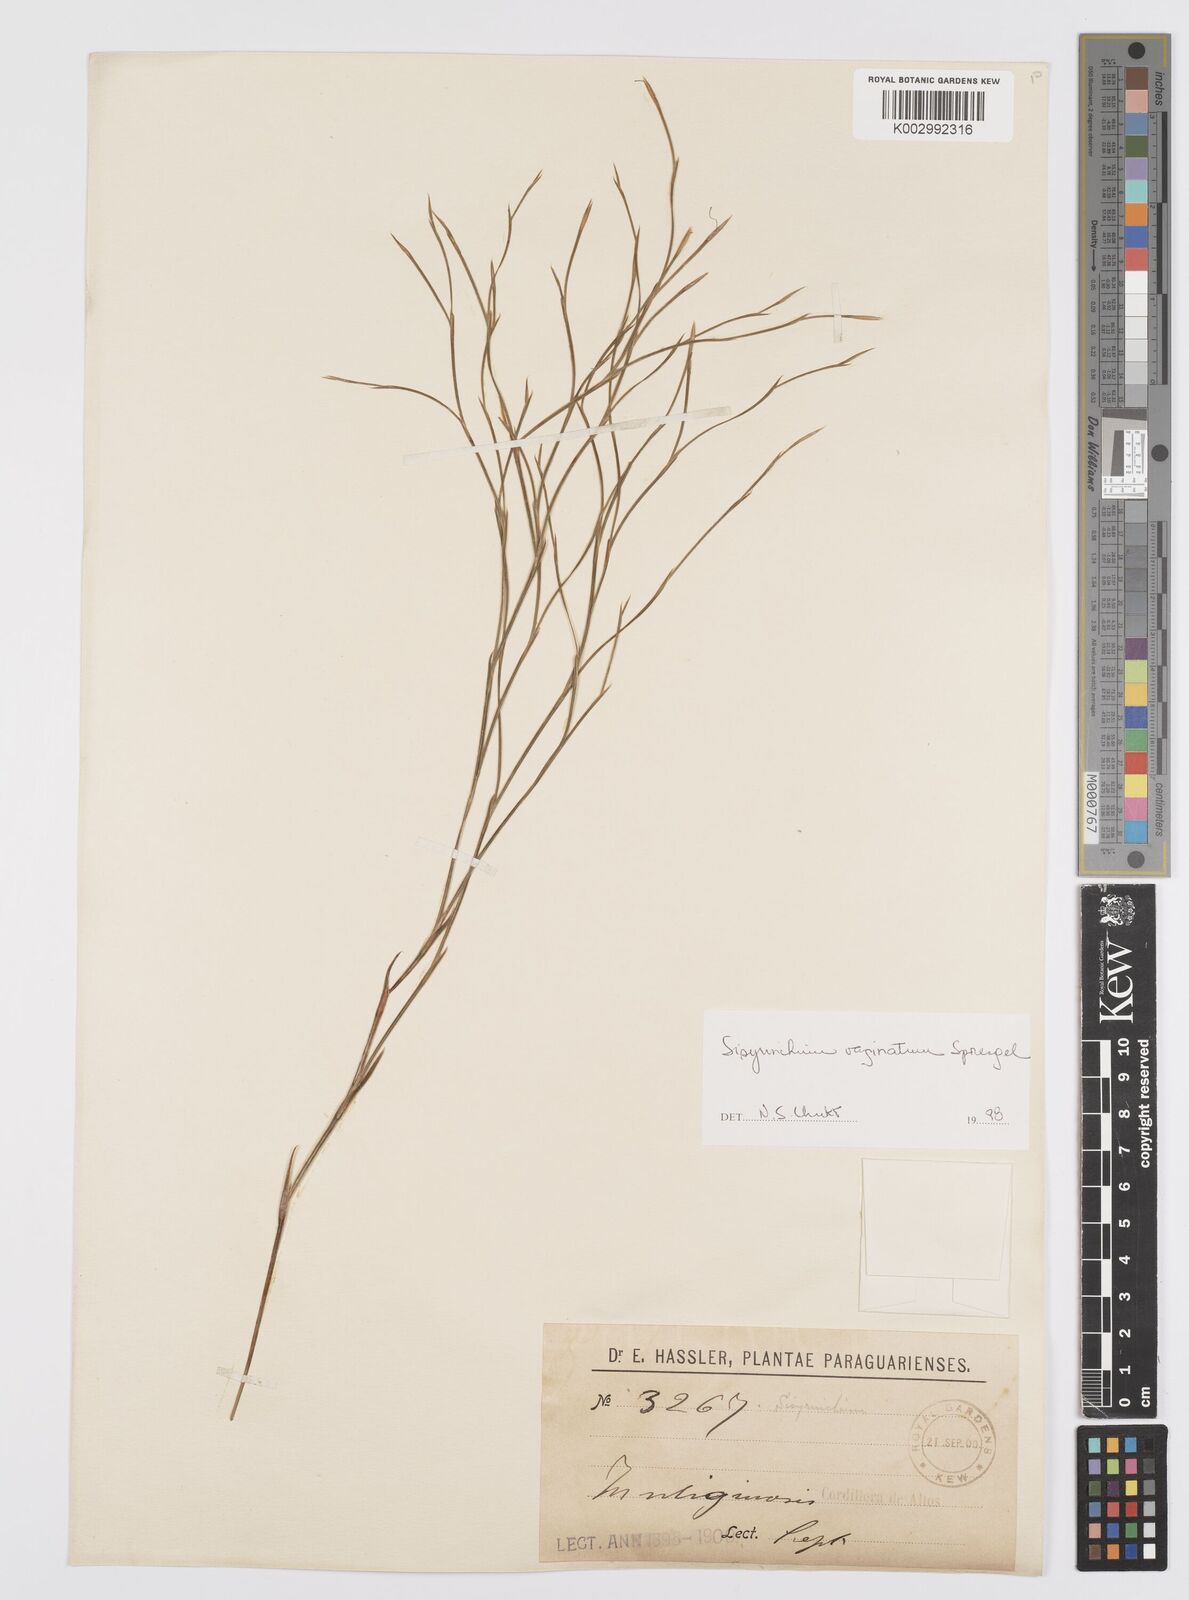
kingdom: Plantae
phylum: Tracheophyta
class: Liliopsida
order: Asparagales
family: Iridaceae
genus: Sisyrinchium
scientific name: Sisyrinchium vaginatum
